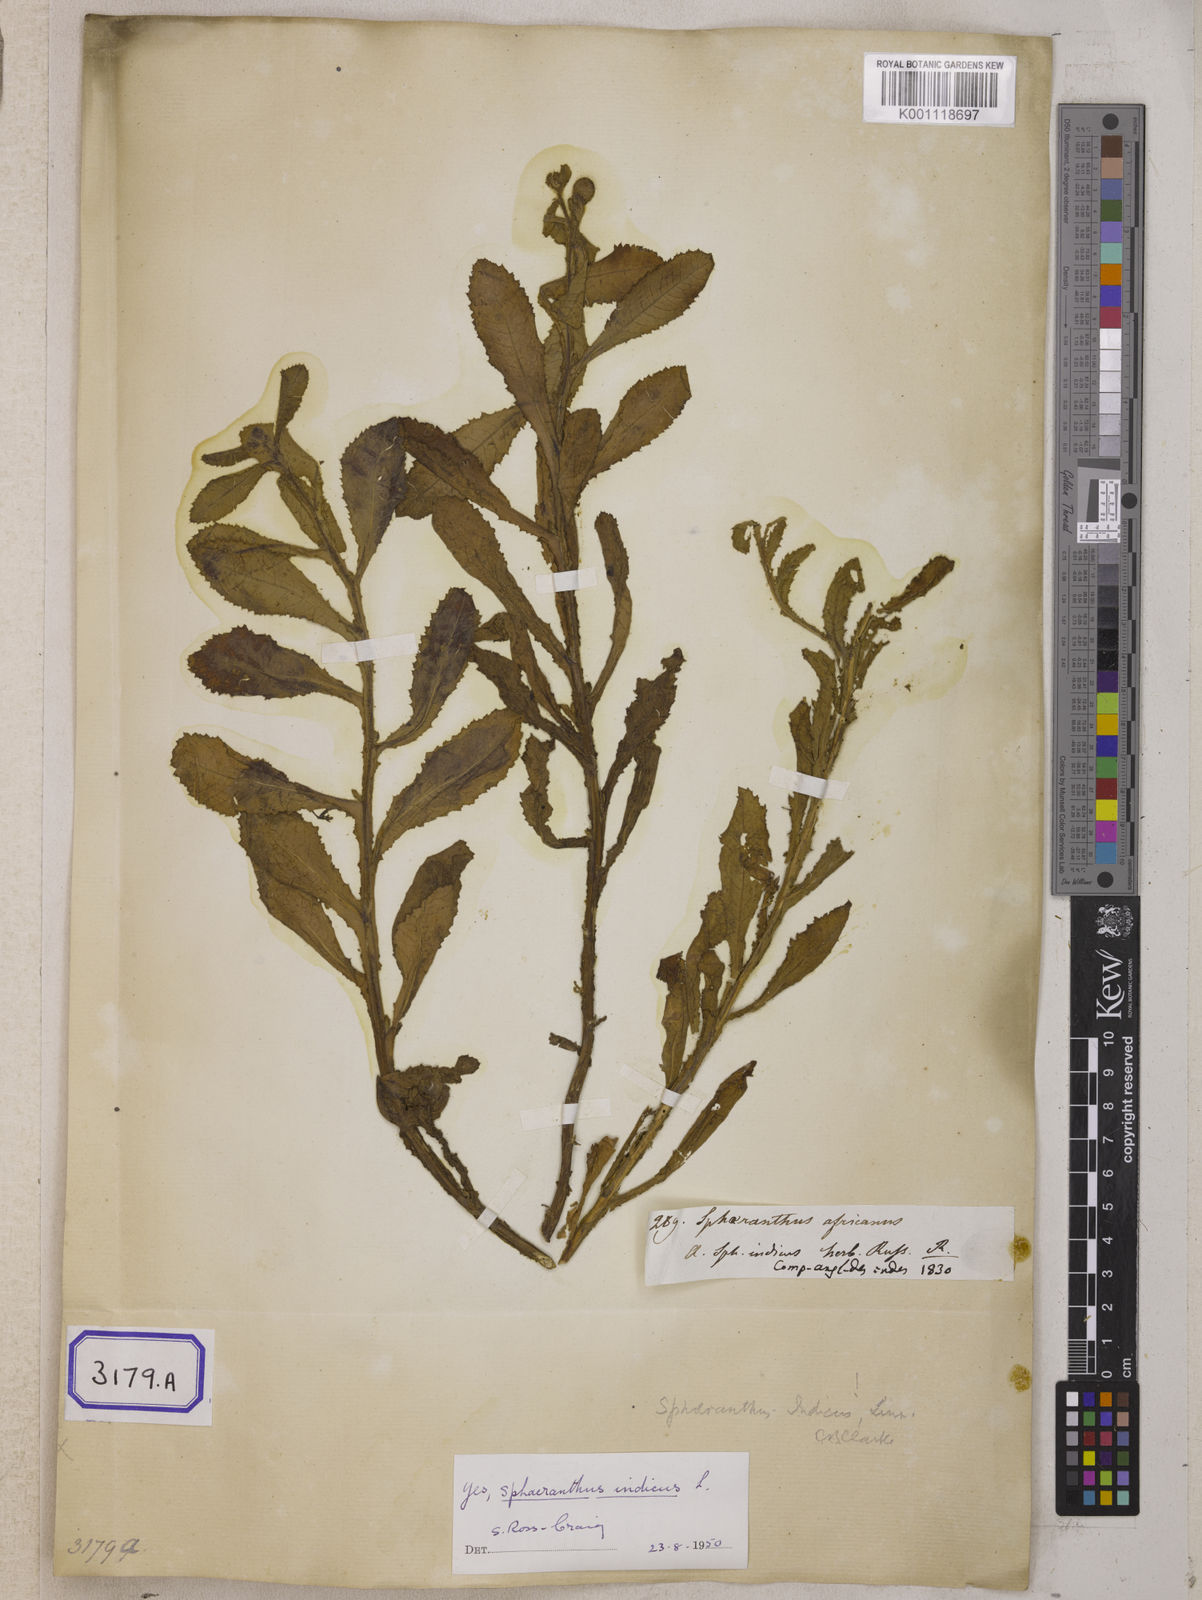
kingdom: Plantae
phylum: Tracheophyta
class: Magnoliopsida
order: Asterales
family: Asteraceae
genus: Sphaeranthus
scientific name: Sphaeranthus senegalensis
